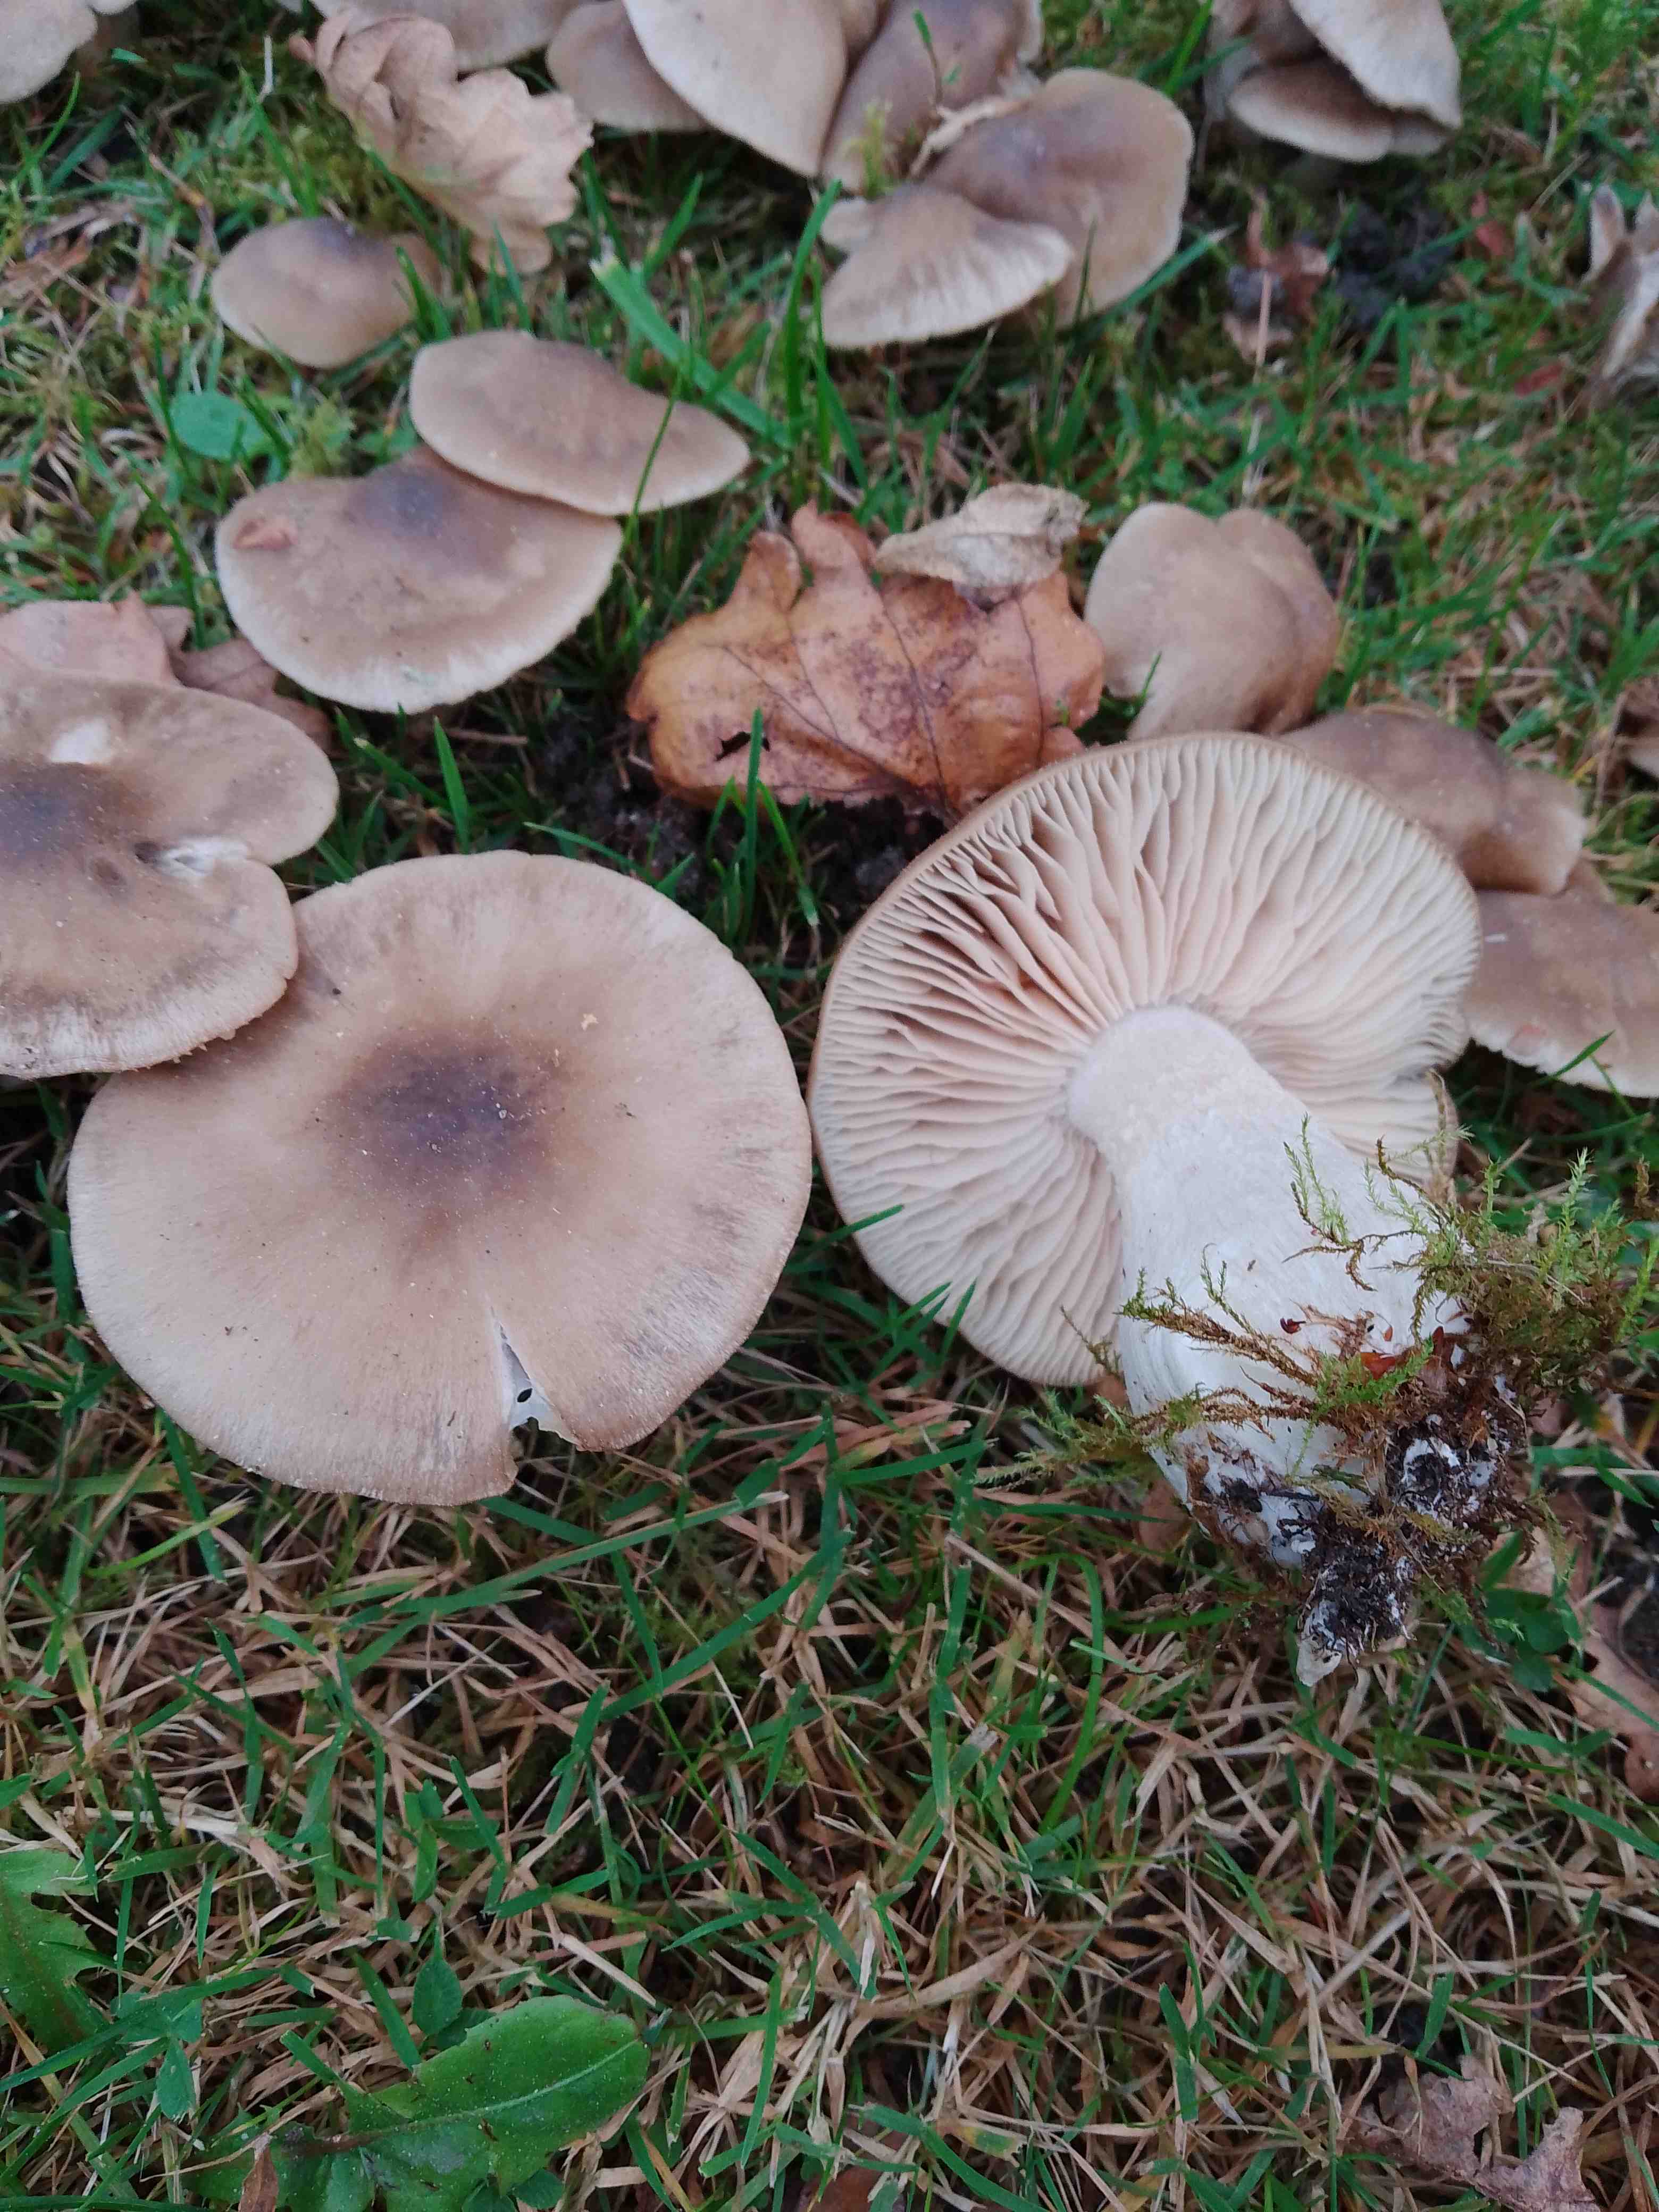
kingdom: Fungi
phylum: Basidiomycota
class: Agaricomycetes
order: Agaricales
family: Entolomataceae
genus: Entoloma
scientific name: Entoloma lividoalbum
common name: lysstokket rødblad
